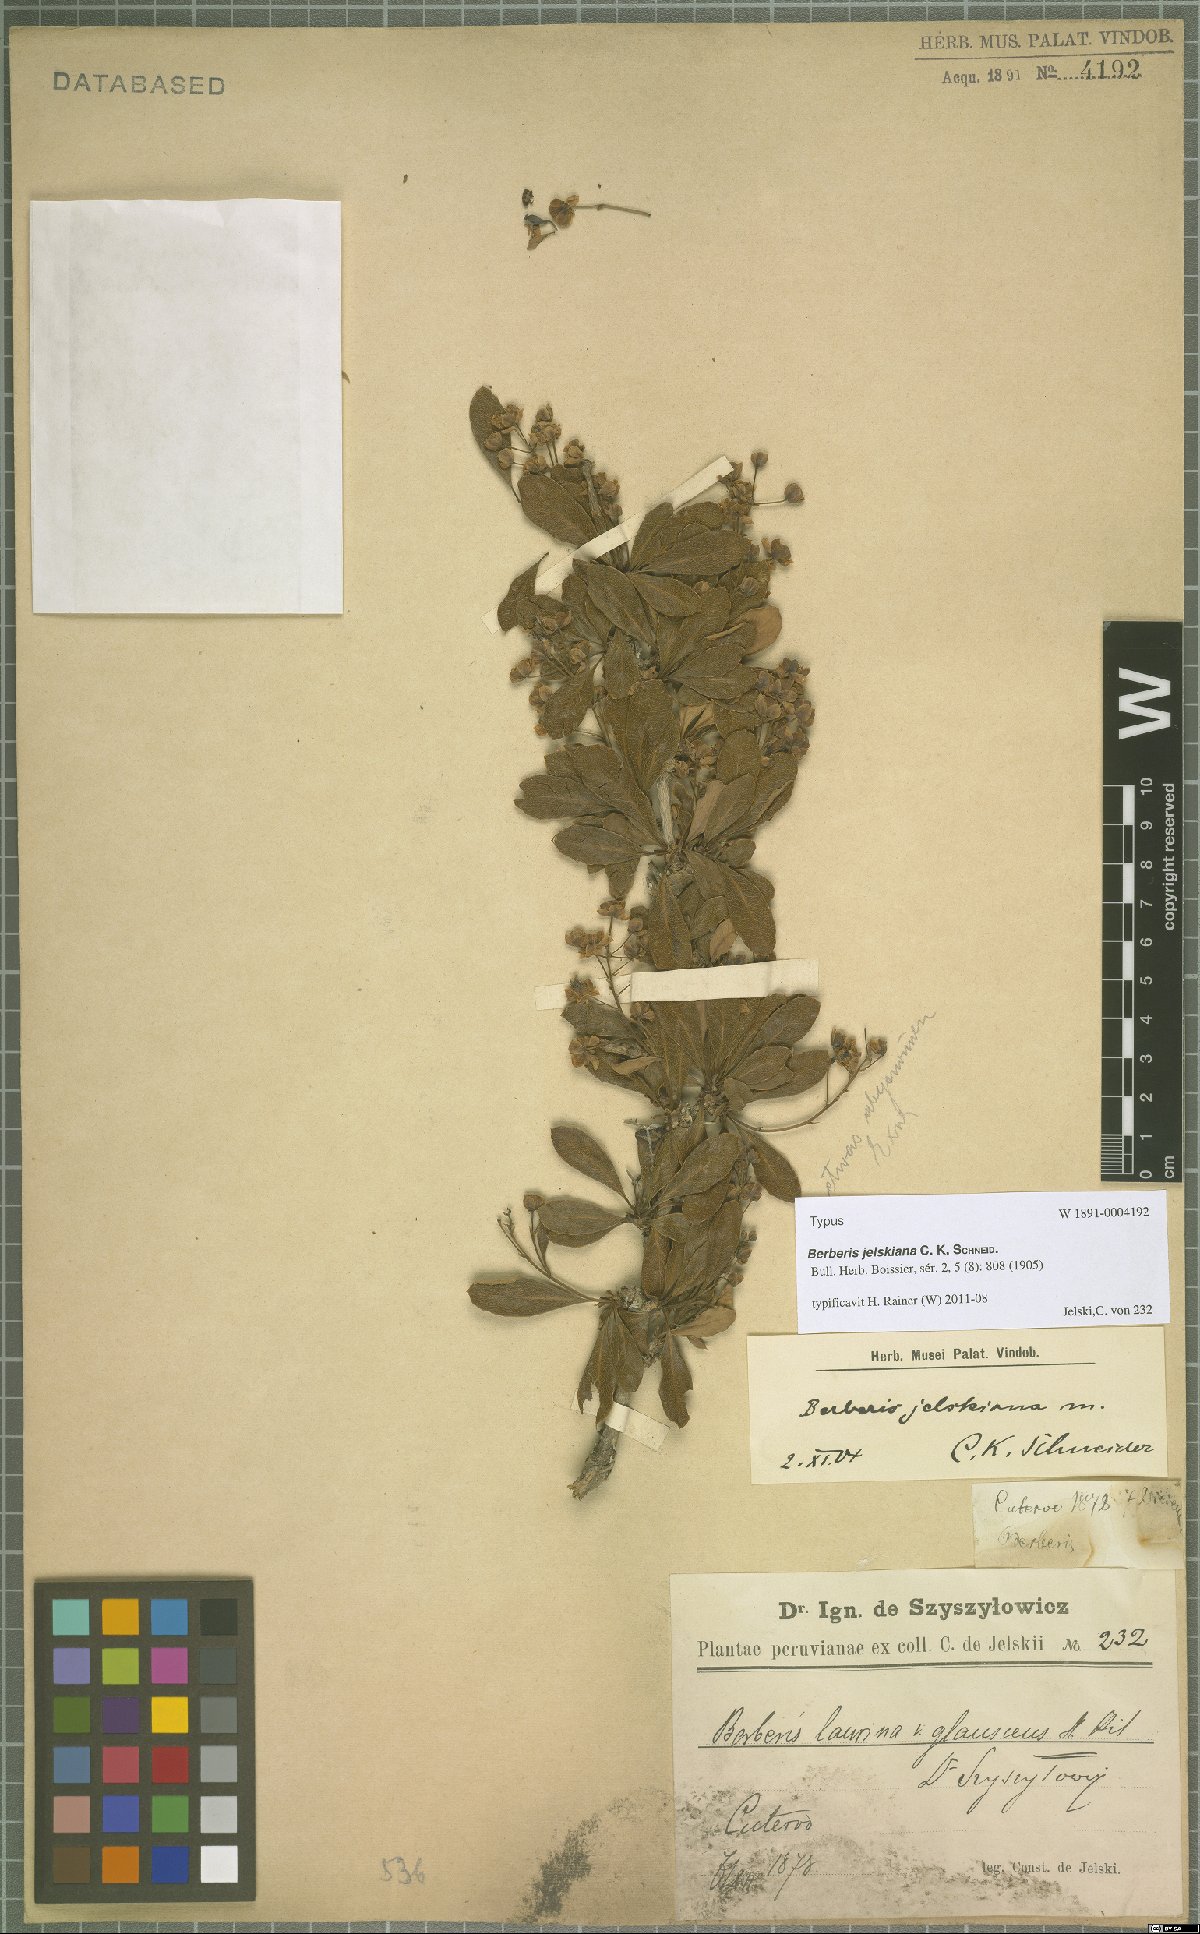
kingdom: Plantae
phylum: Tracheophyta
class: Magnoliopsida
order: Ranunculales
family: Berberidaceae
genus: Berberis
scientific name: Berberis jelskiana
